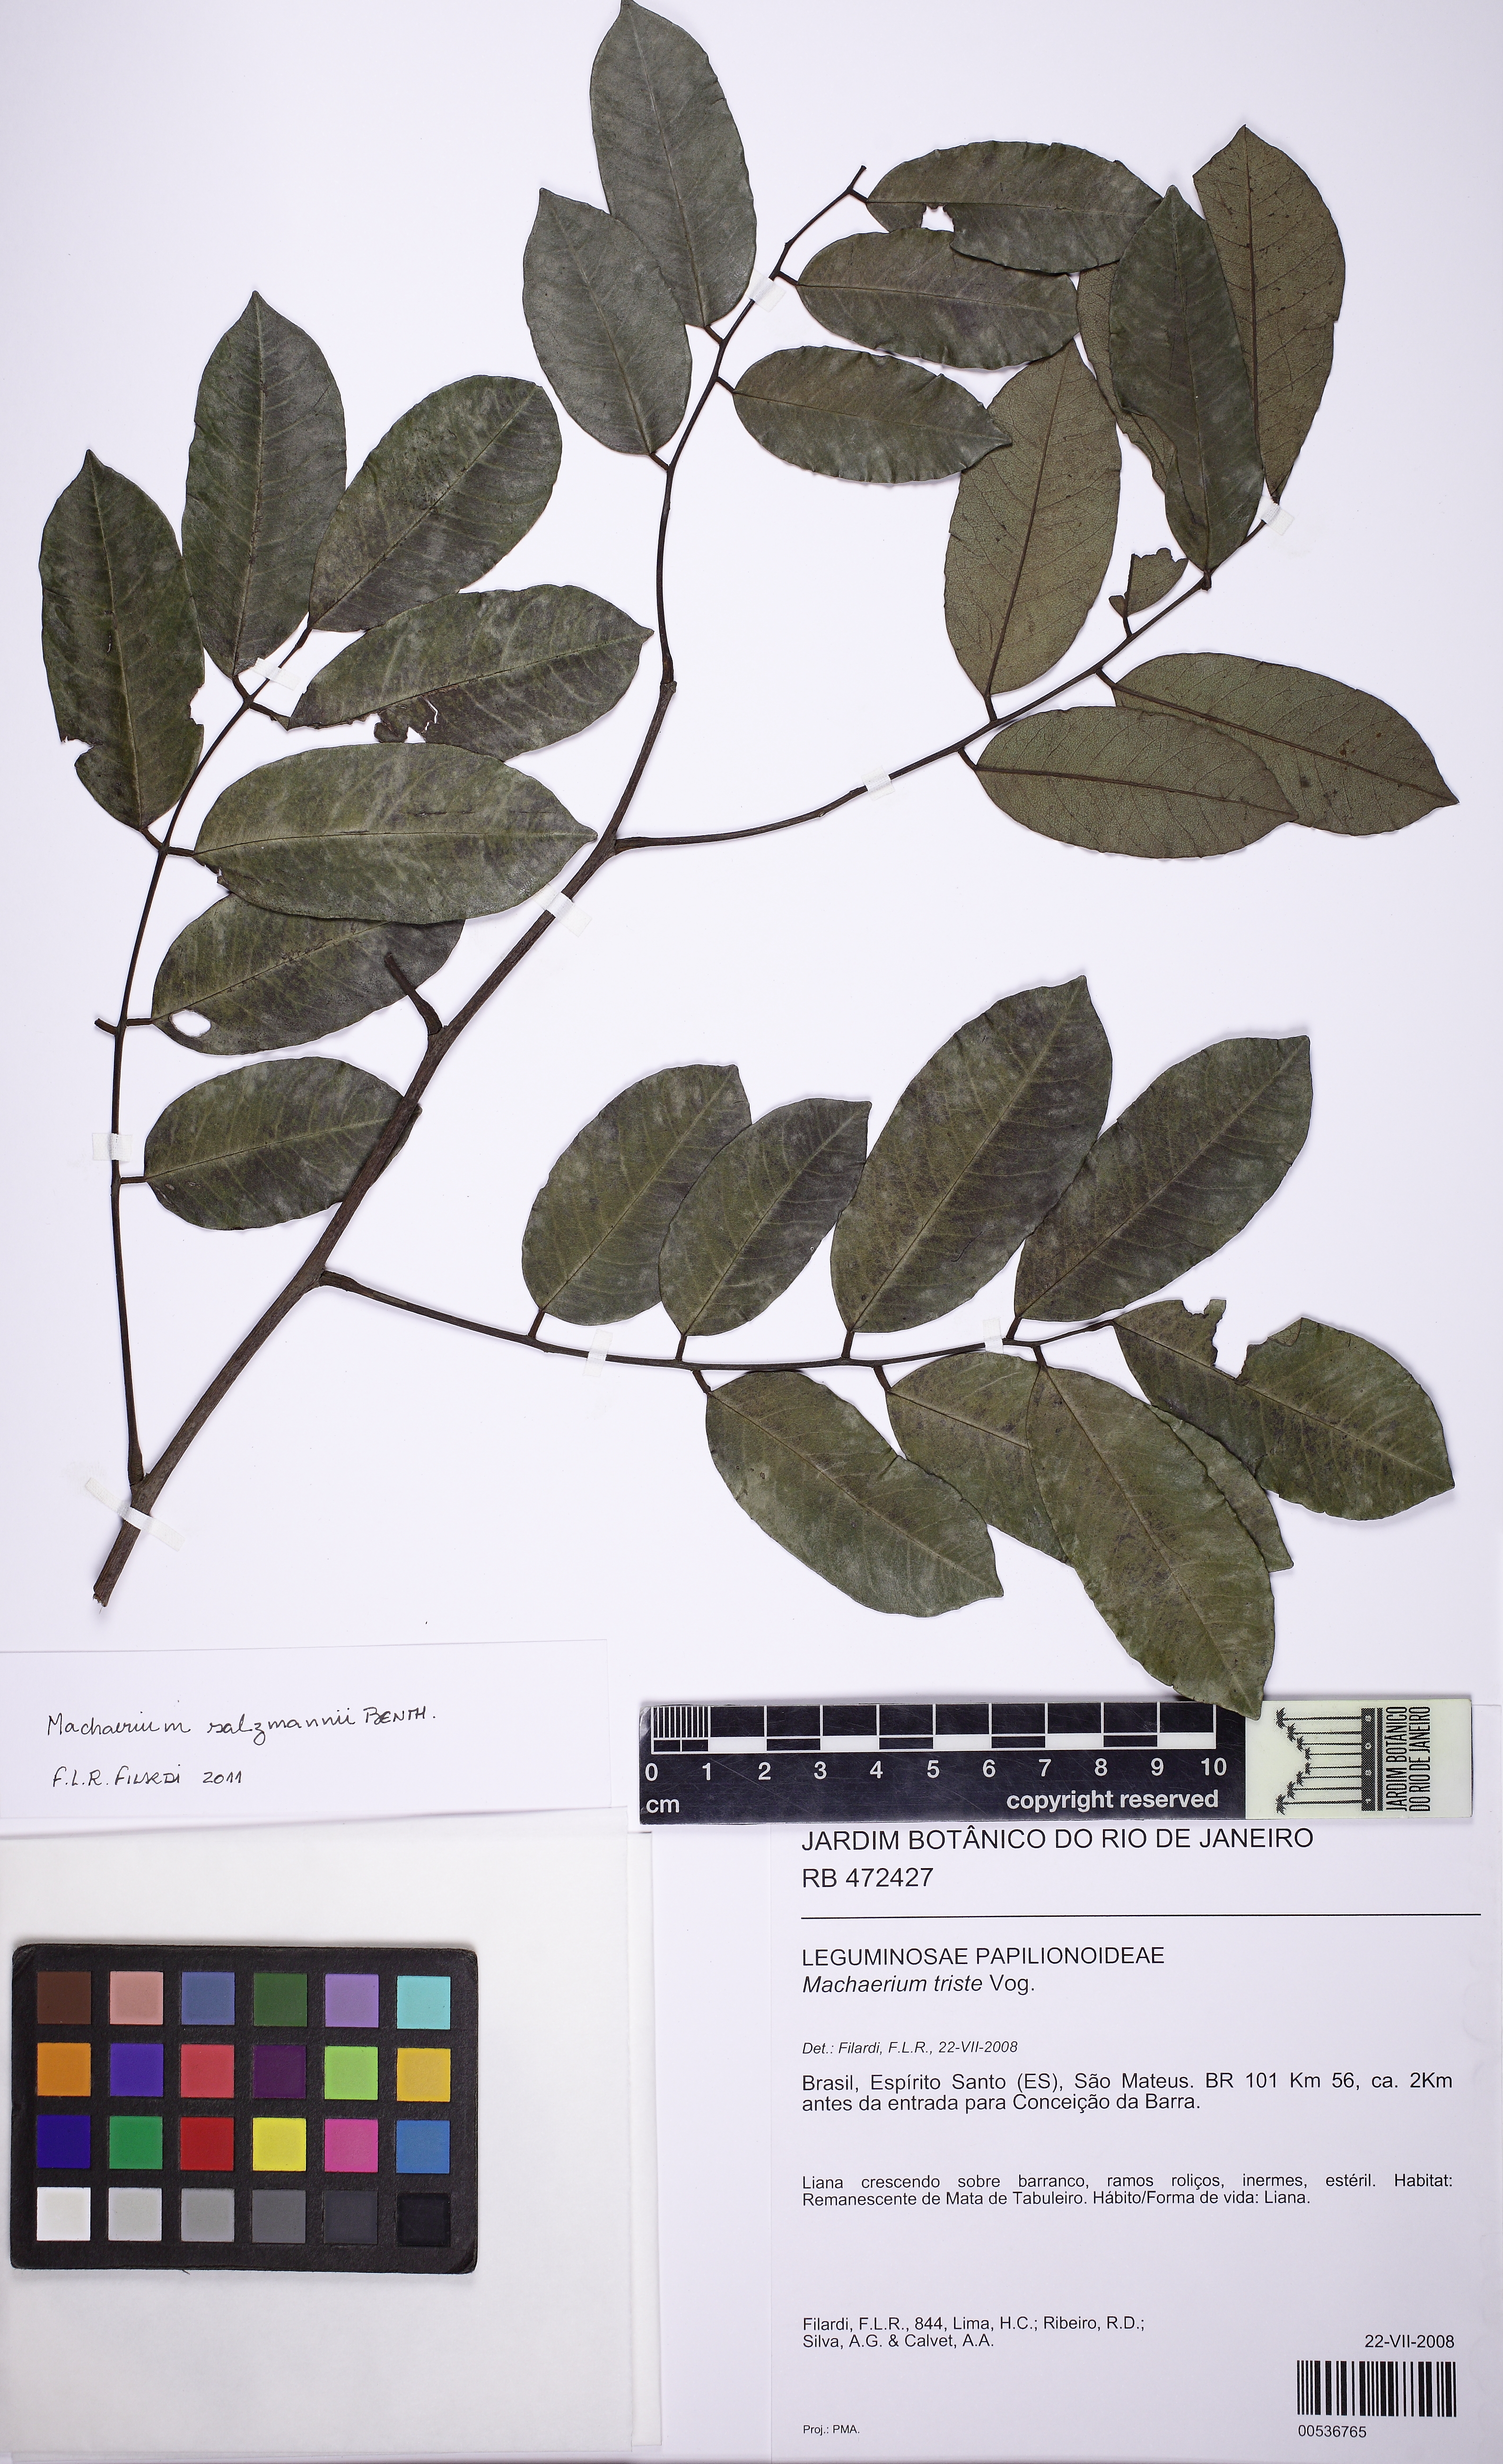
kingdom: Plantae
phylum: Tracheophyta
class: Magnoliopsida
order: Fabales
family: Fabaceae
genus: Machaerium
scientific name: Machaerium salzmannii
